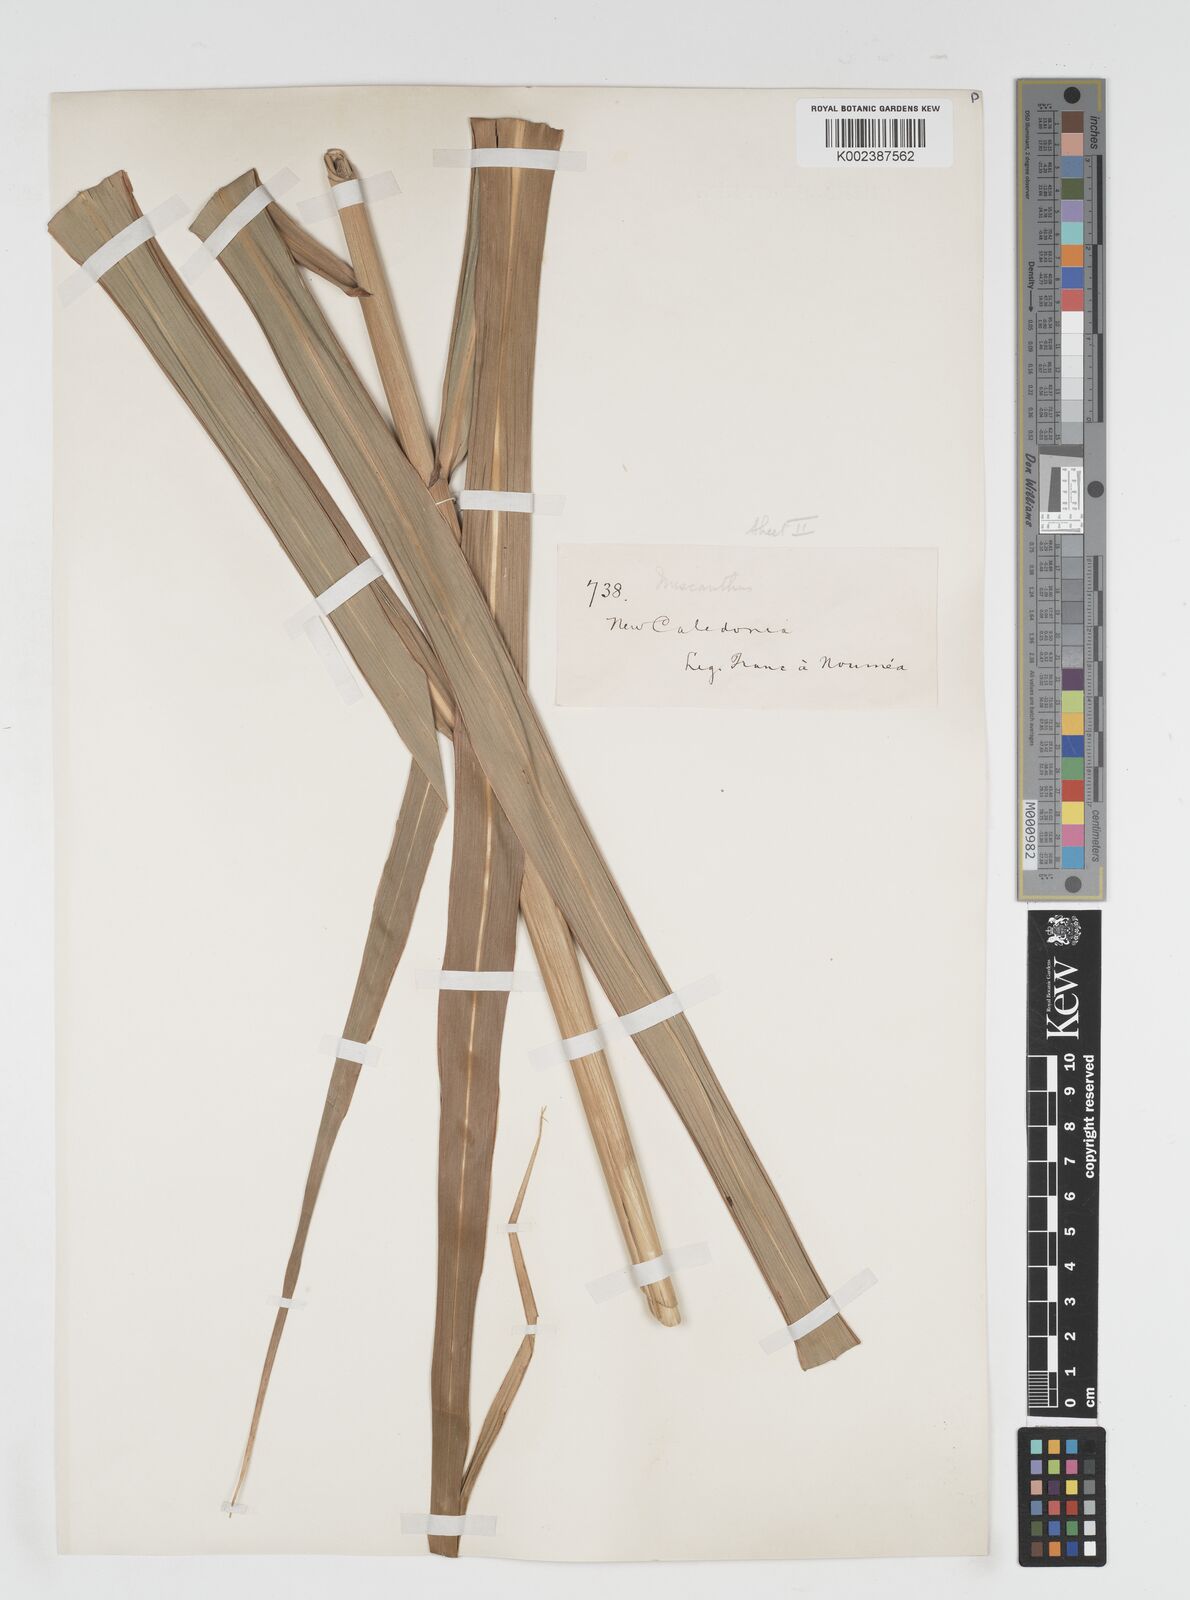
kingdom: Plantae
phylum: Tracheophyta
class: Liliopsida
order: Poales
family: Poaceae
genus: Miscanthus
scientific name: Miscanthus floridulus
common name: Pacific island silvergrass
